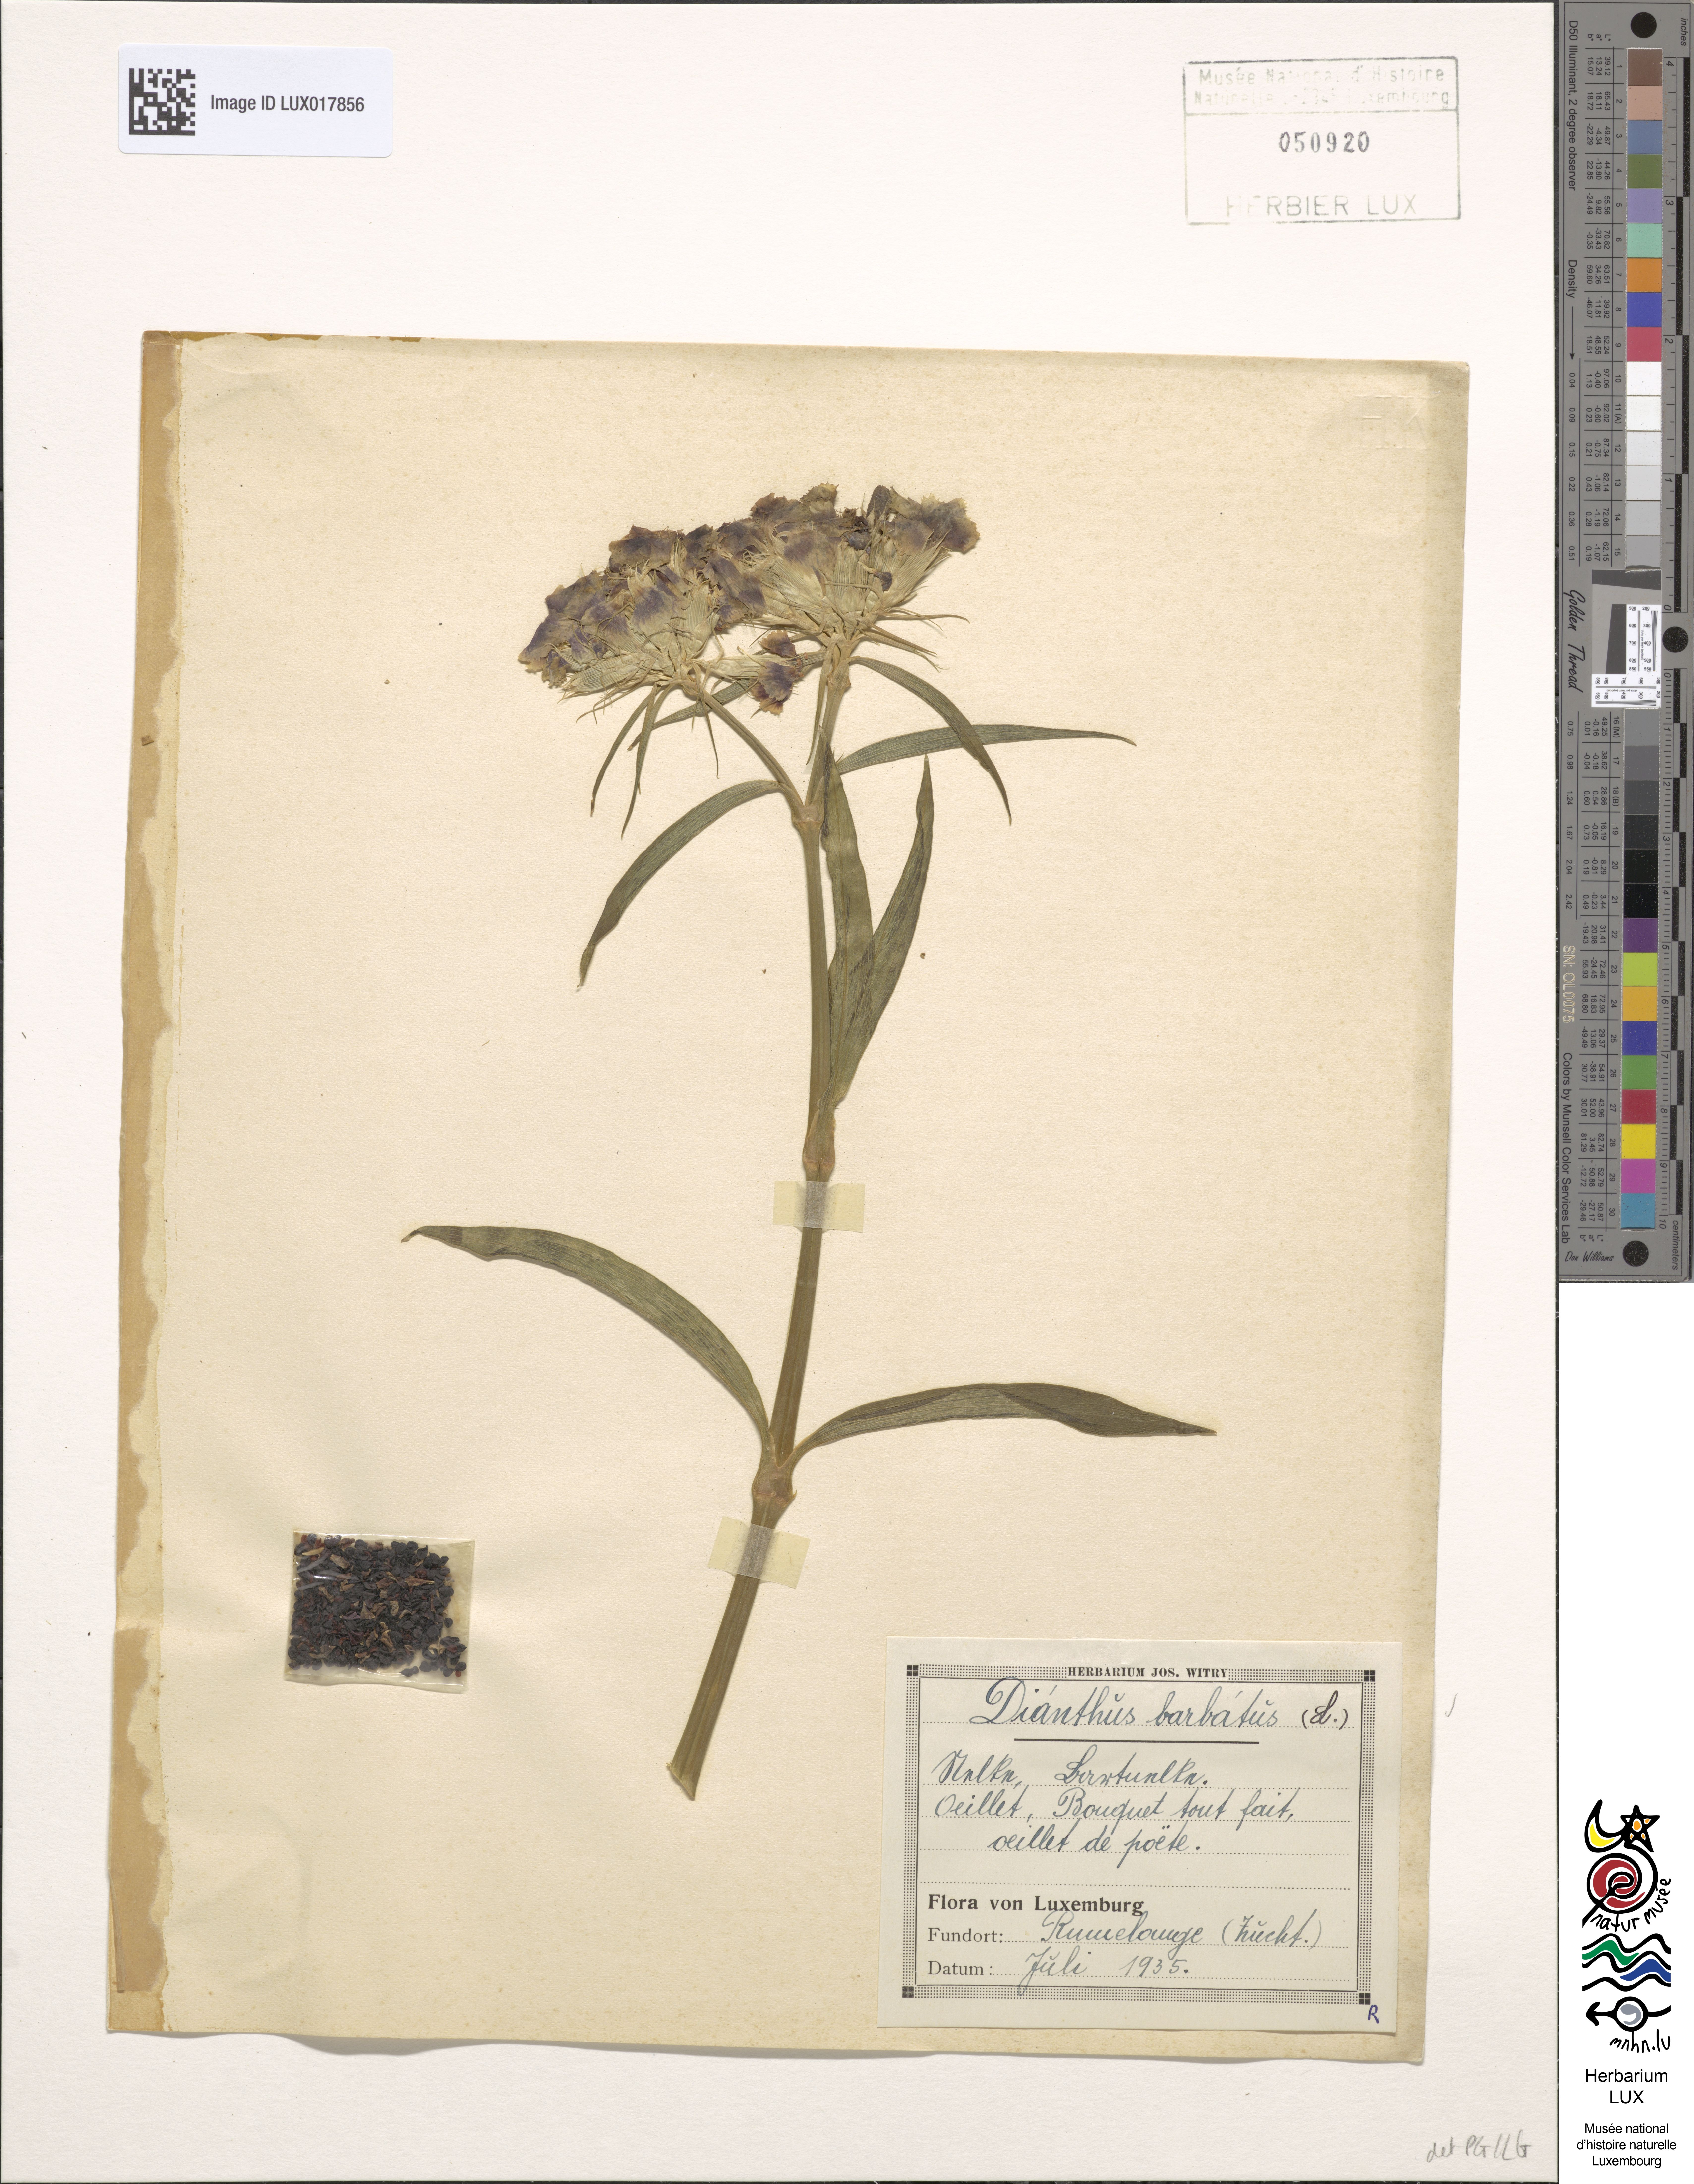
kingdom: Plantae
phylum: Tracheophyta
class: Magnoliopsida
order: Caryophyllales
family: Caryophyllaceae
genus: Dianthus
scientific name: Dianthus barbatus
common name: Sweet-william
